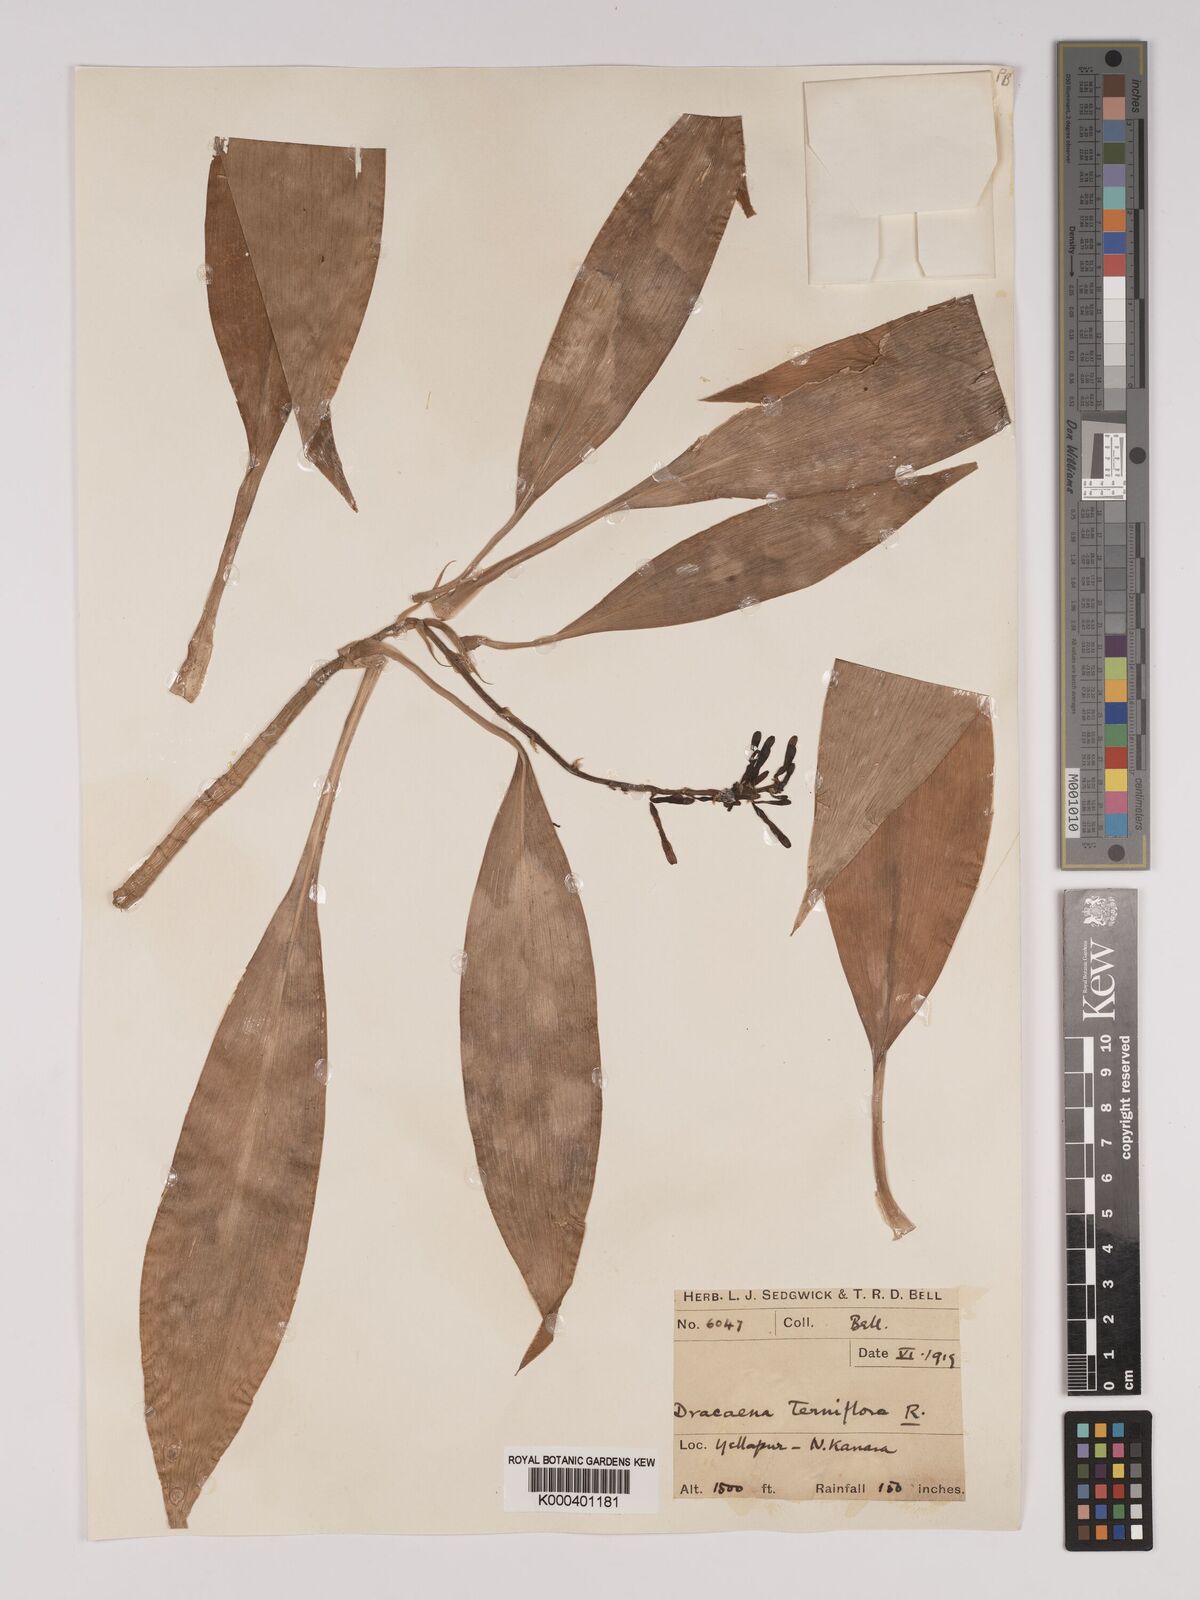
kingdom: Plantae
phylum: Tracheophyta
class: Liliopsida
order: Asparagales
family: Asparagaceae
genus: Dracaena
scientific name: Dracaena terniflora
